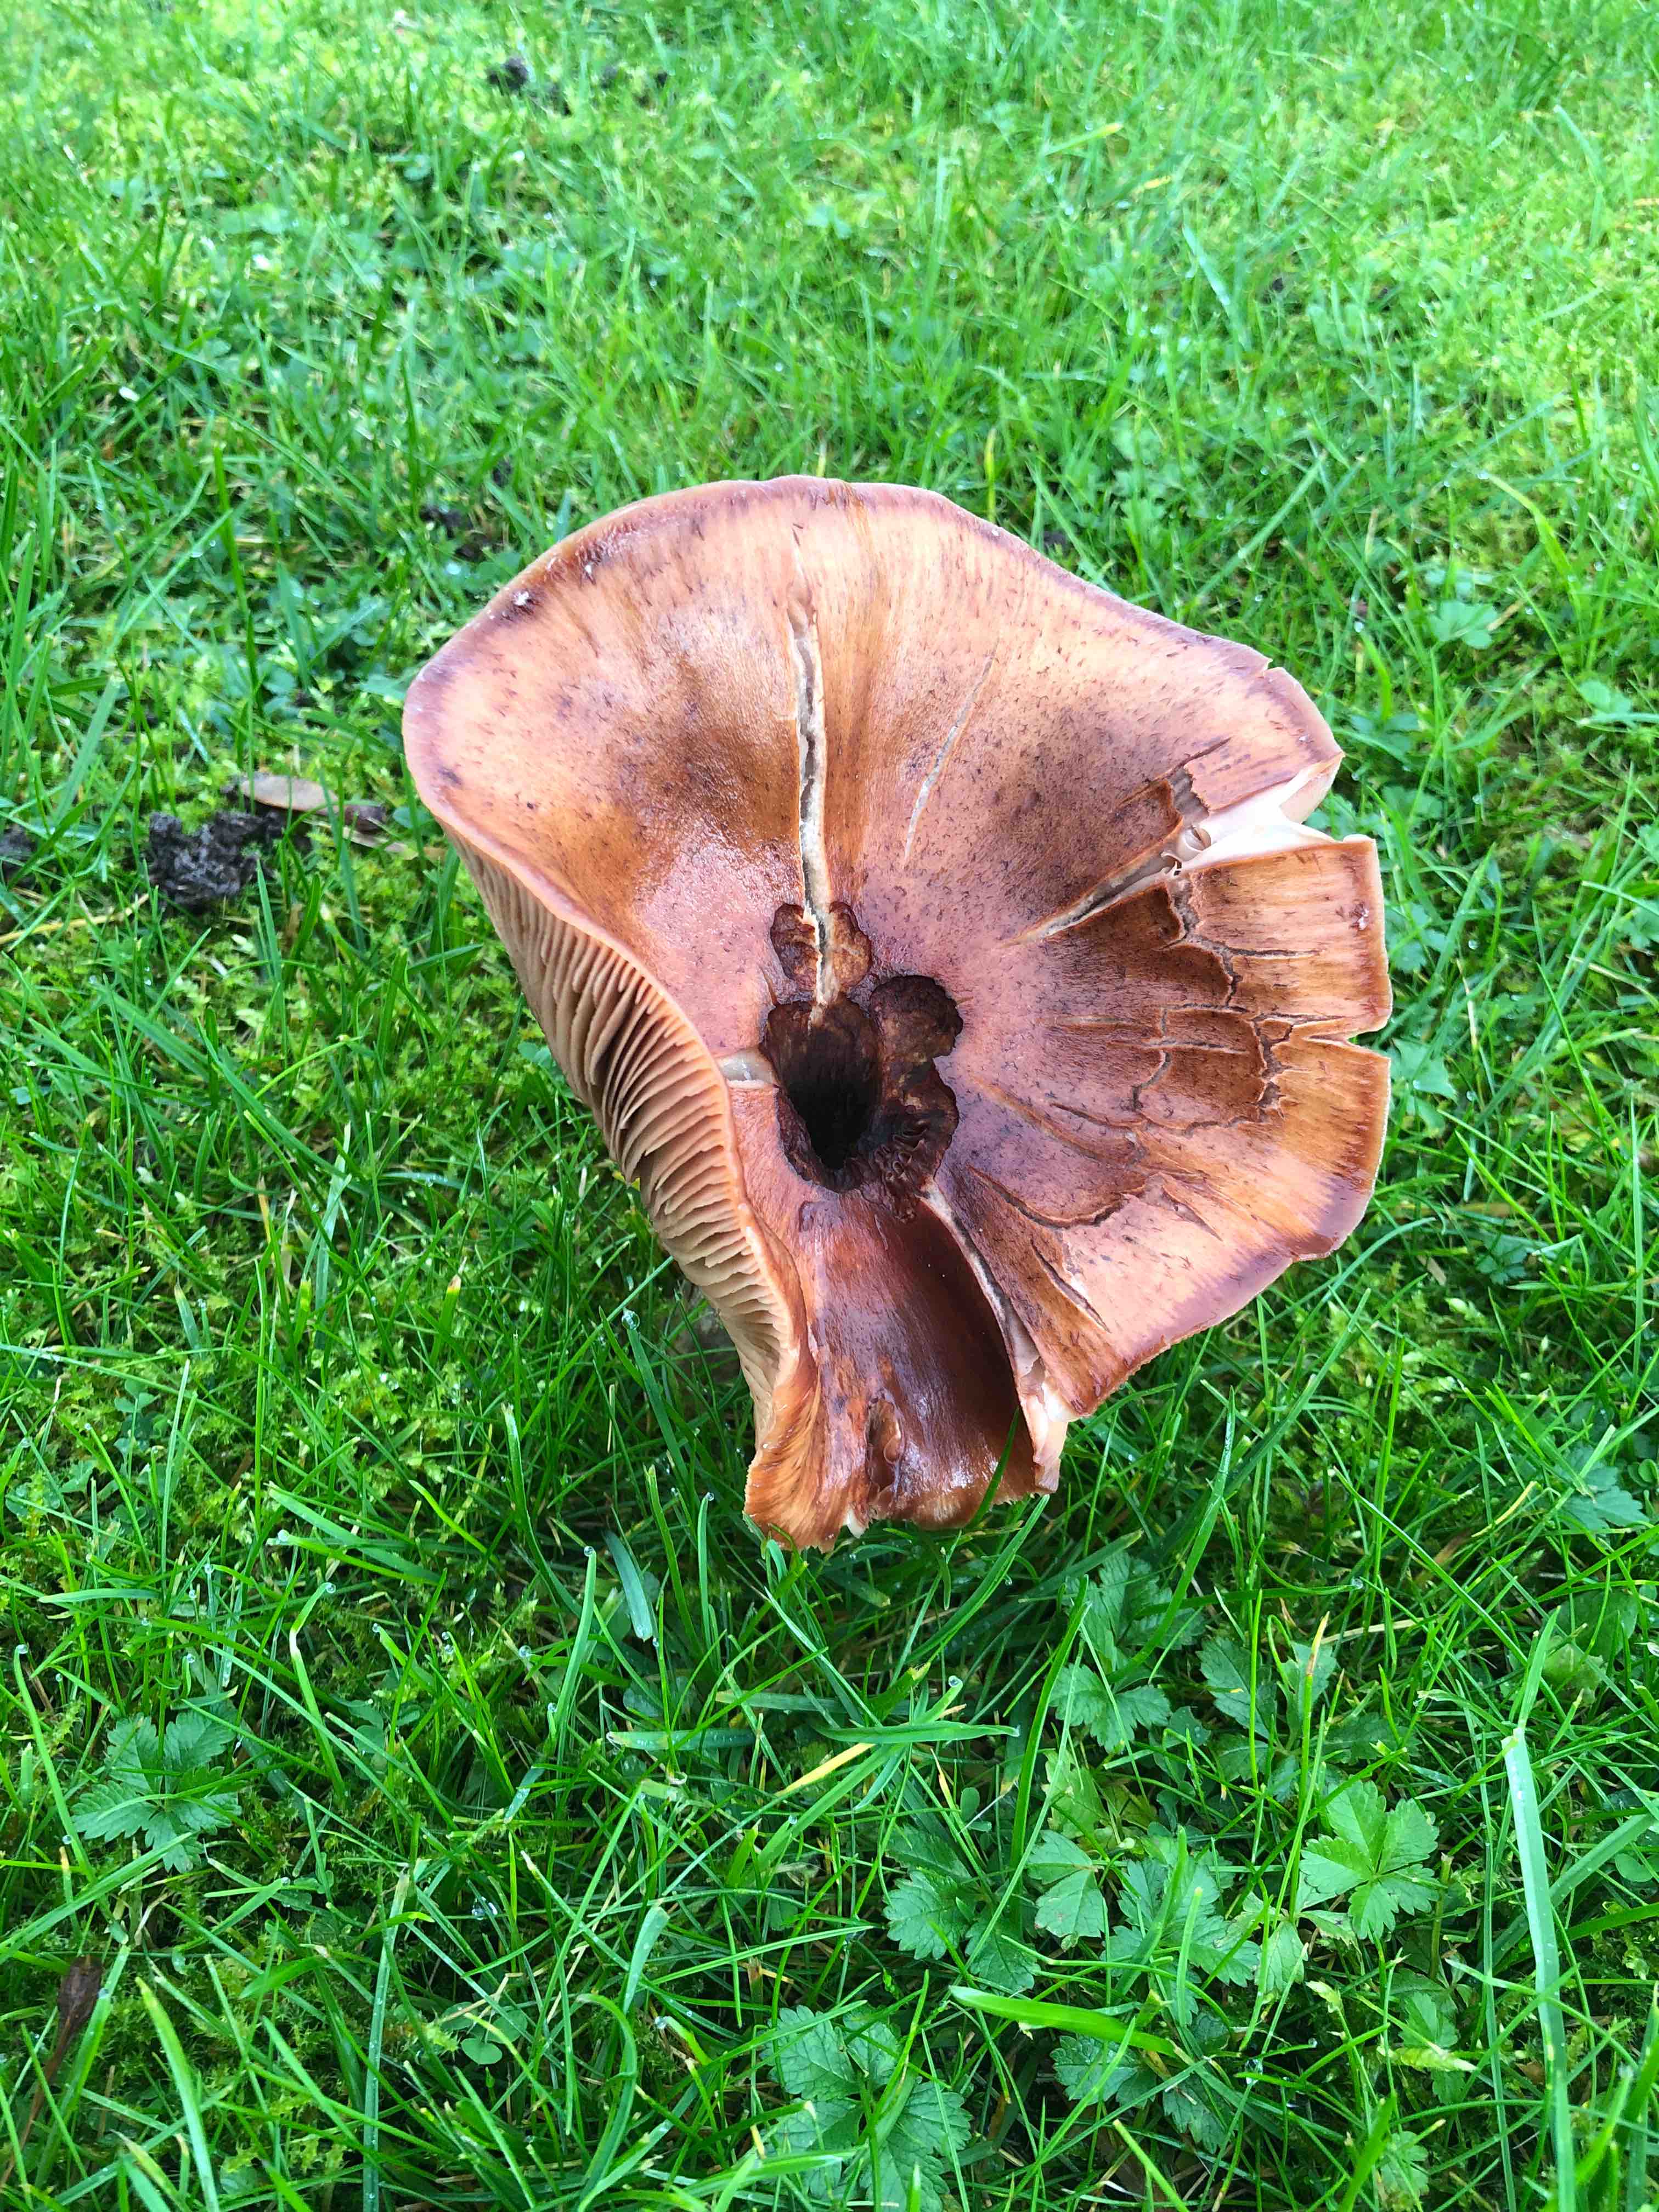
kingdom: Fungi
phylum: Basidiomycota
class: Agaricomycetes
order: Agaricales
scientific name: Agaricales
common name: champignonordenen
